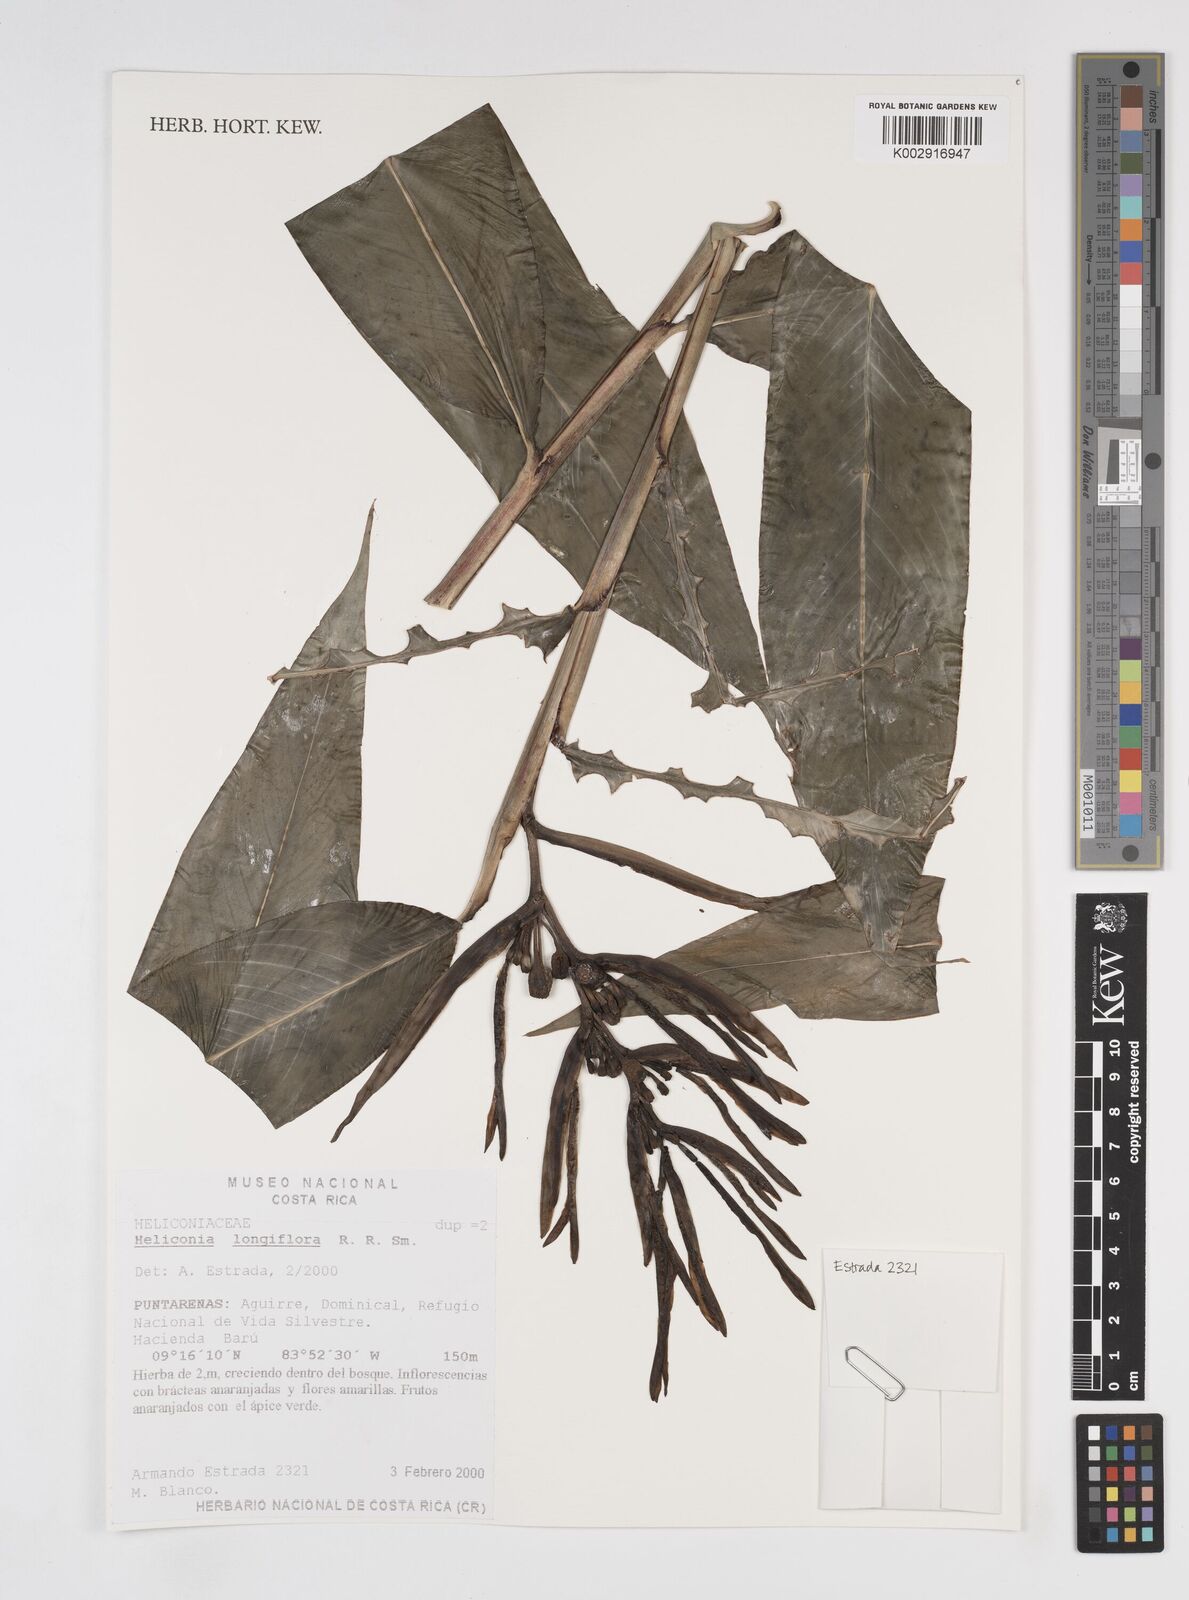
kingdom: Plantae
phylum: Tracheophyta
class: Liliopsida
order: Zingiberales
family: Heliconiaceae
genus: Heliconia
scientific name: Heliconia longiflora
